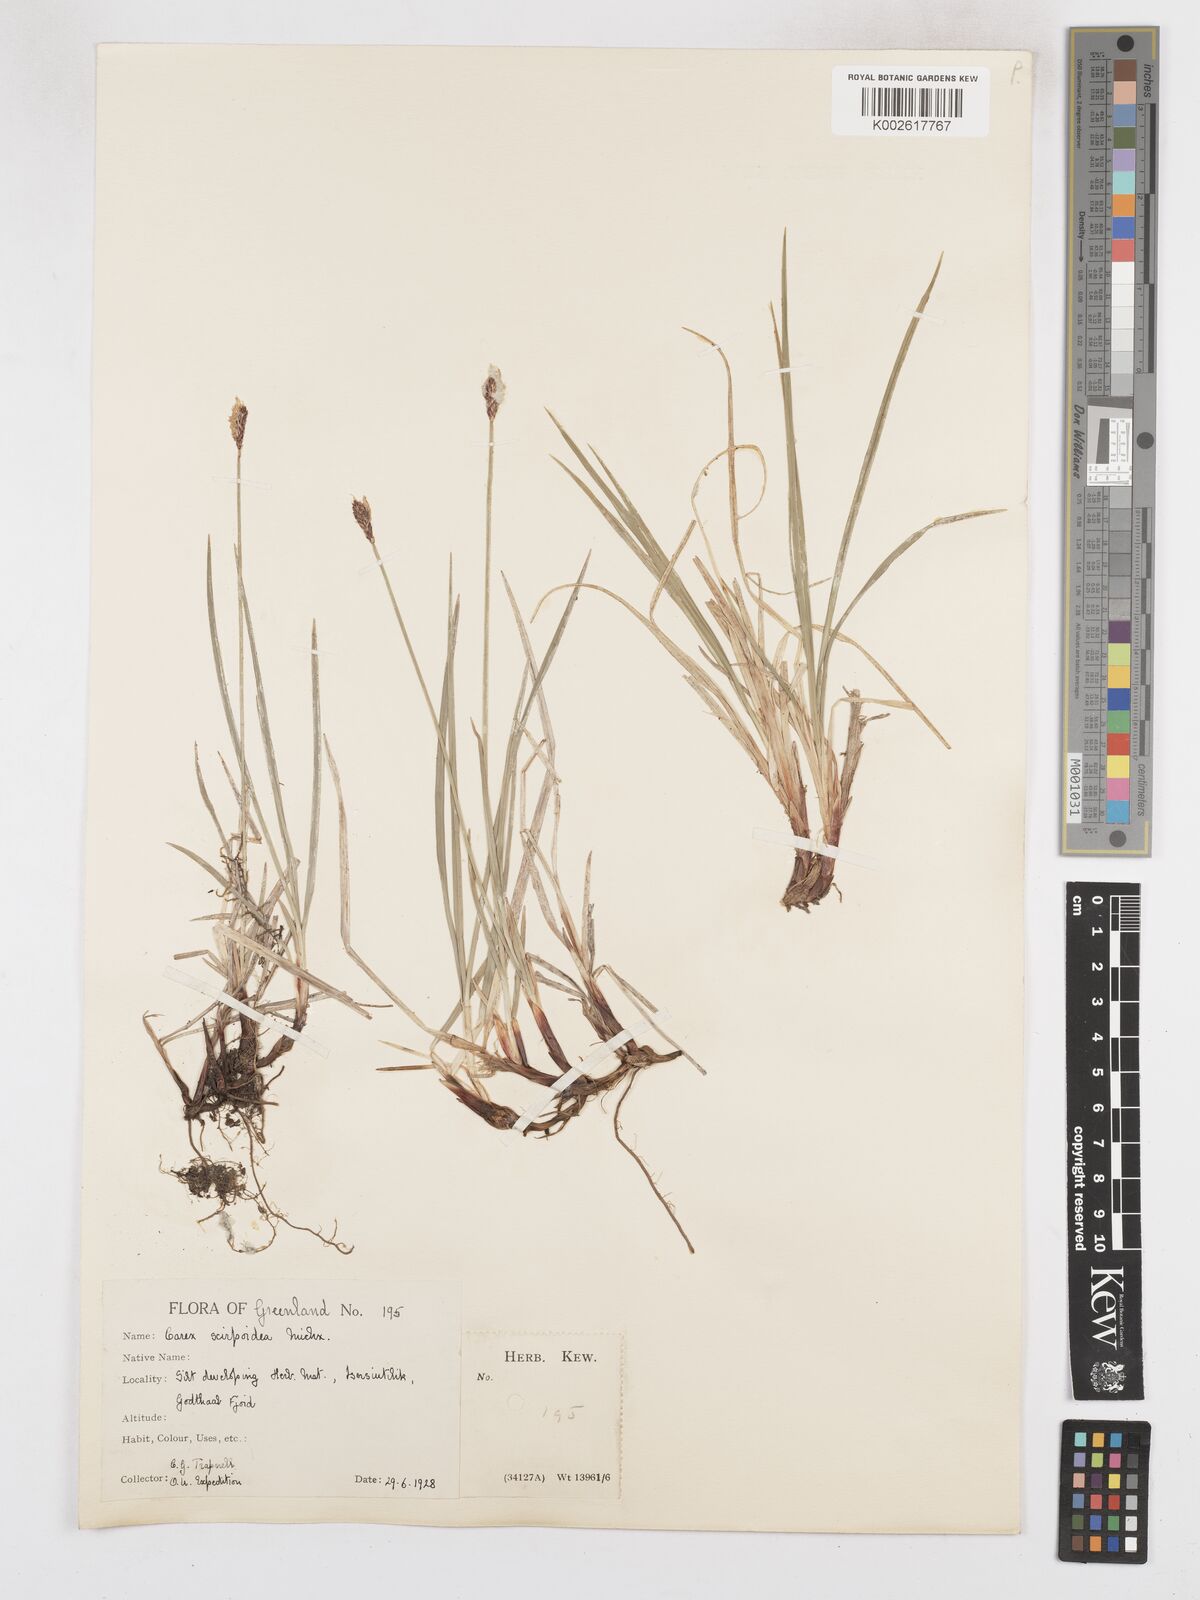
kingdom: Plantae
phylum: Tracheophyta
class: Liliopsida
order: Poales
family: Cyperaceae
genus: Carex
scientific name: Carex scirpoidea
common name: Canada single-spike sedge
